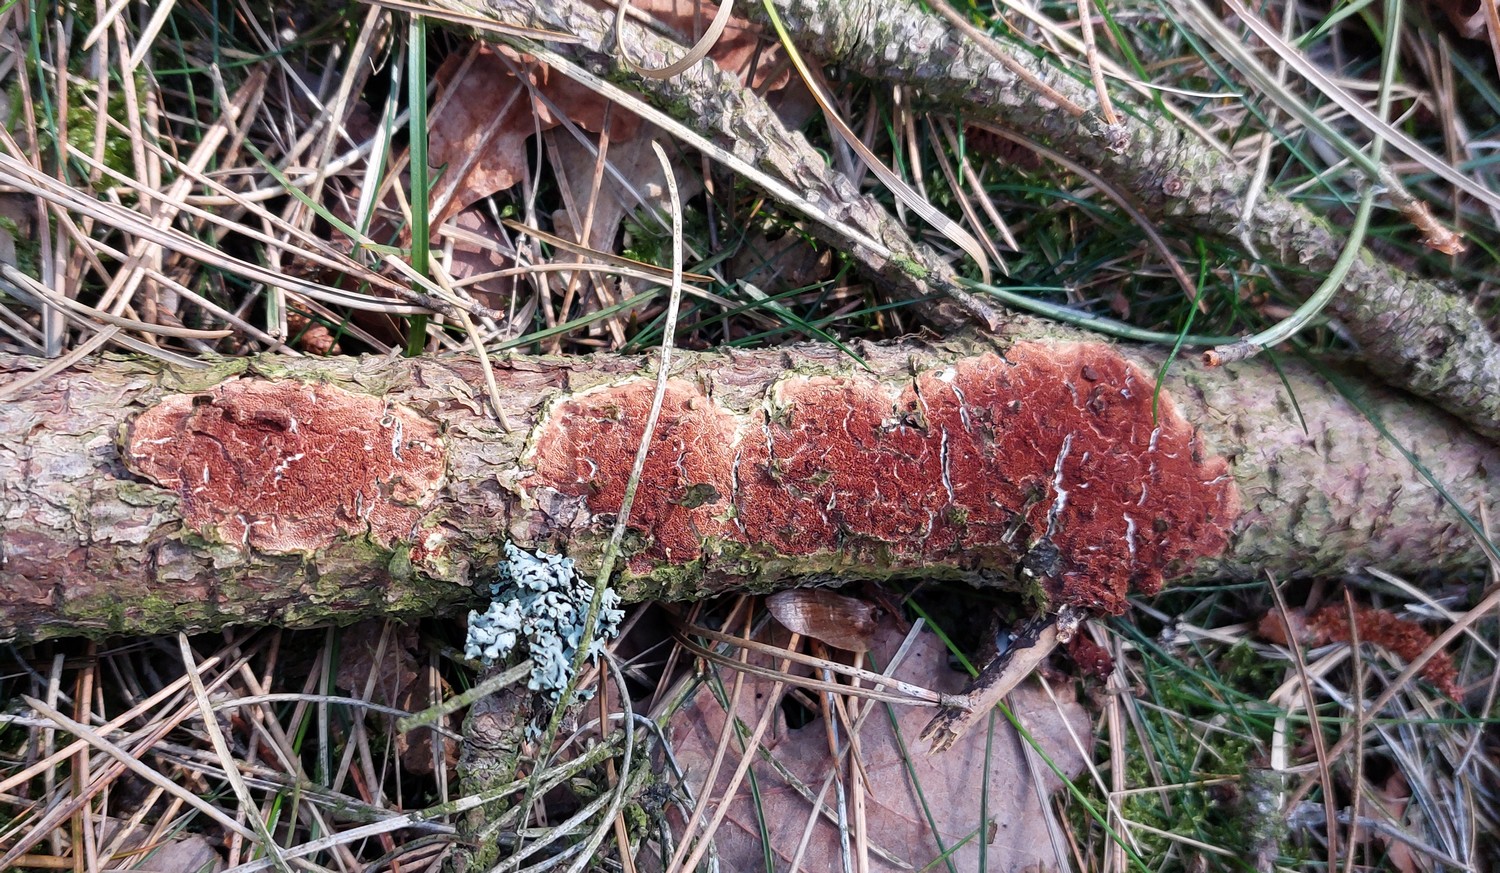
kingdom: Fungi
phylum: Basidiomycota
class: Agaricomycetes
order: Polyporales
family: Irpicaceae
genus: Meruliopsis
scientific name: Meruliopsis taxicola
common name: purpurbrun foldporesvamp
